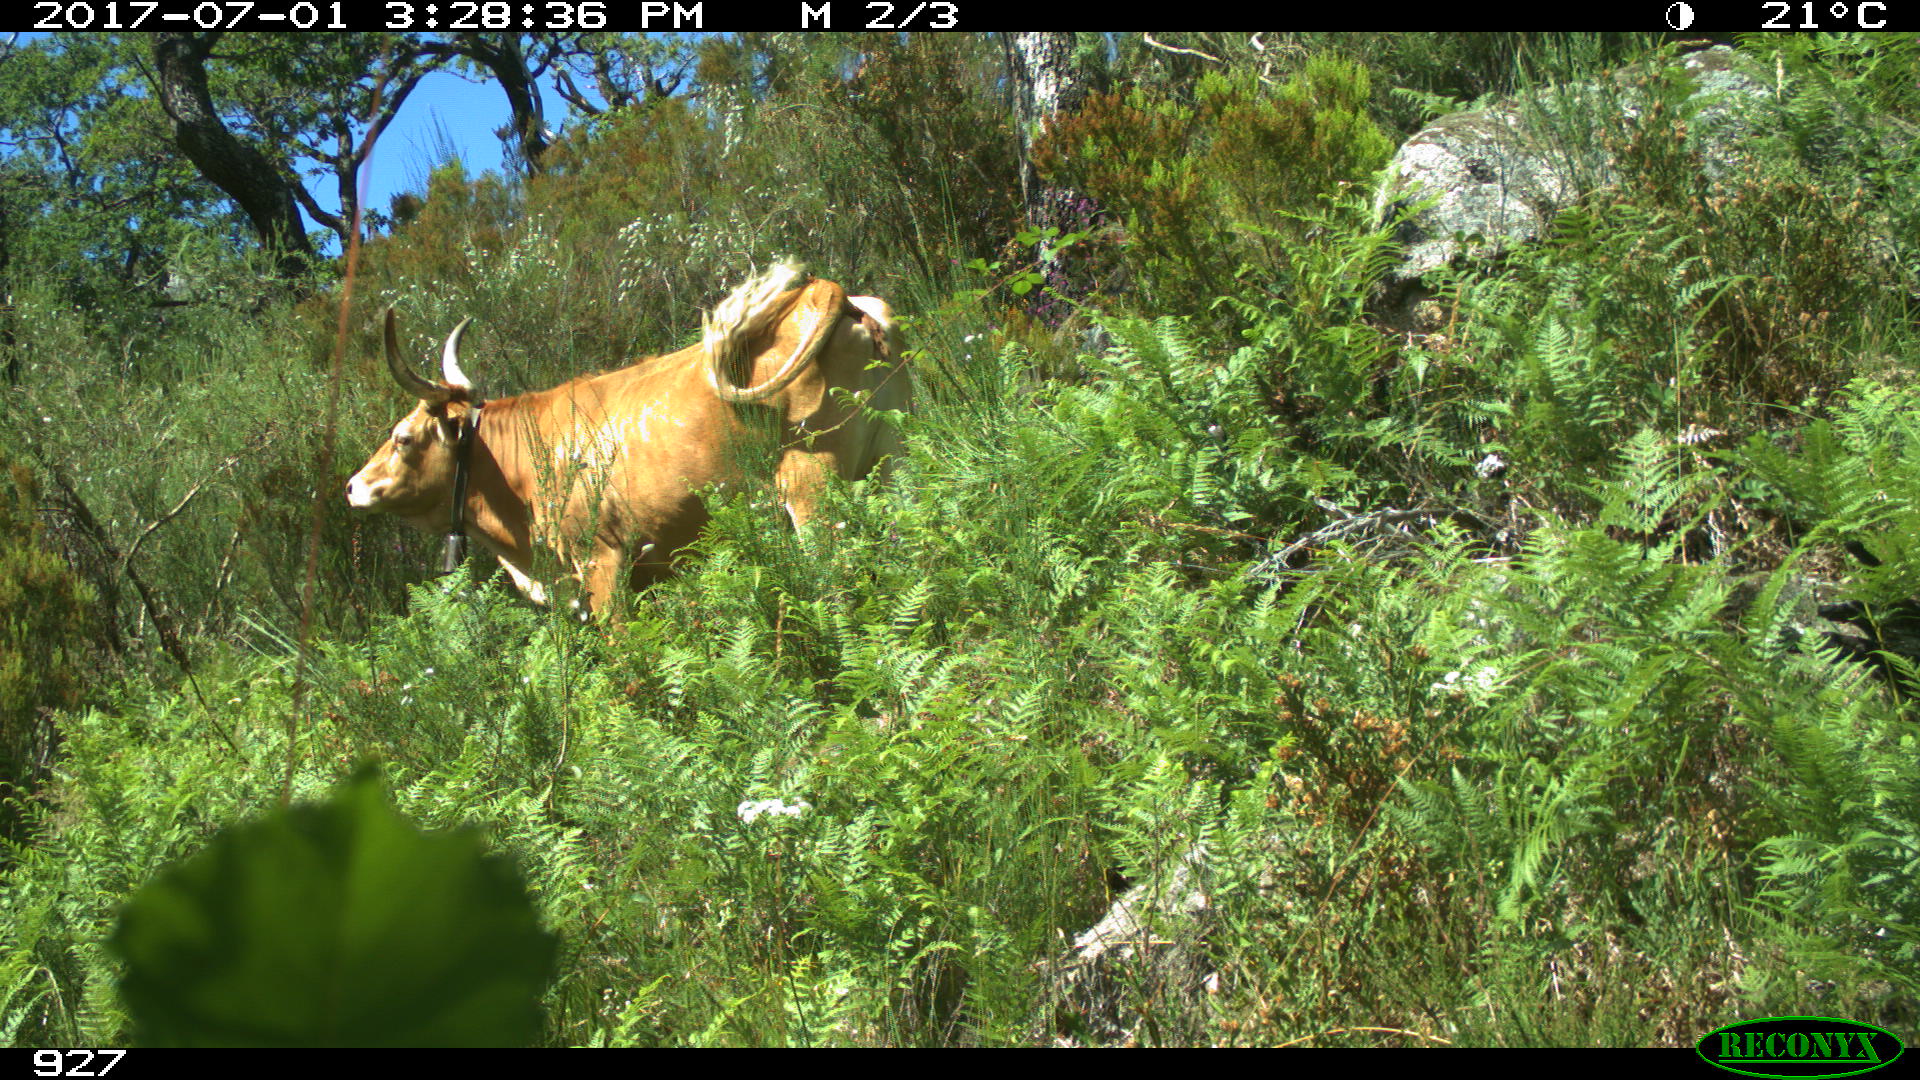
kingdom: Animalia
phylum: Chordata
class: Mammalia
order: Artiodactyla
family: Bovidae
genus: Bos
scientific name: Bos taurus
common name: Domesticated cattle
